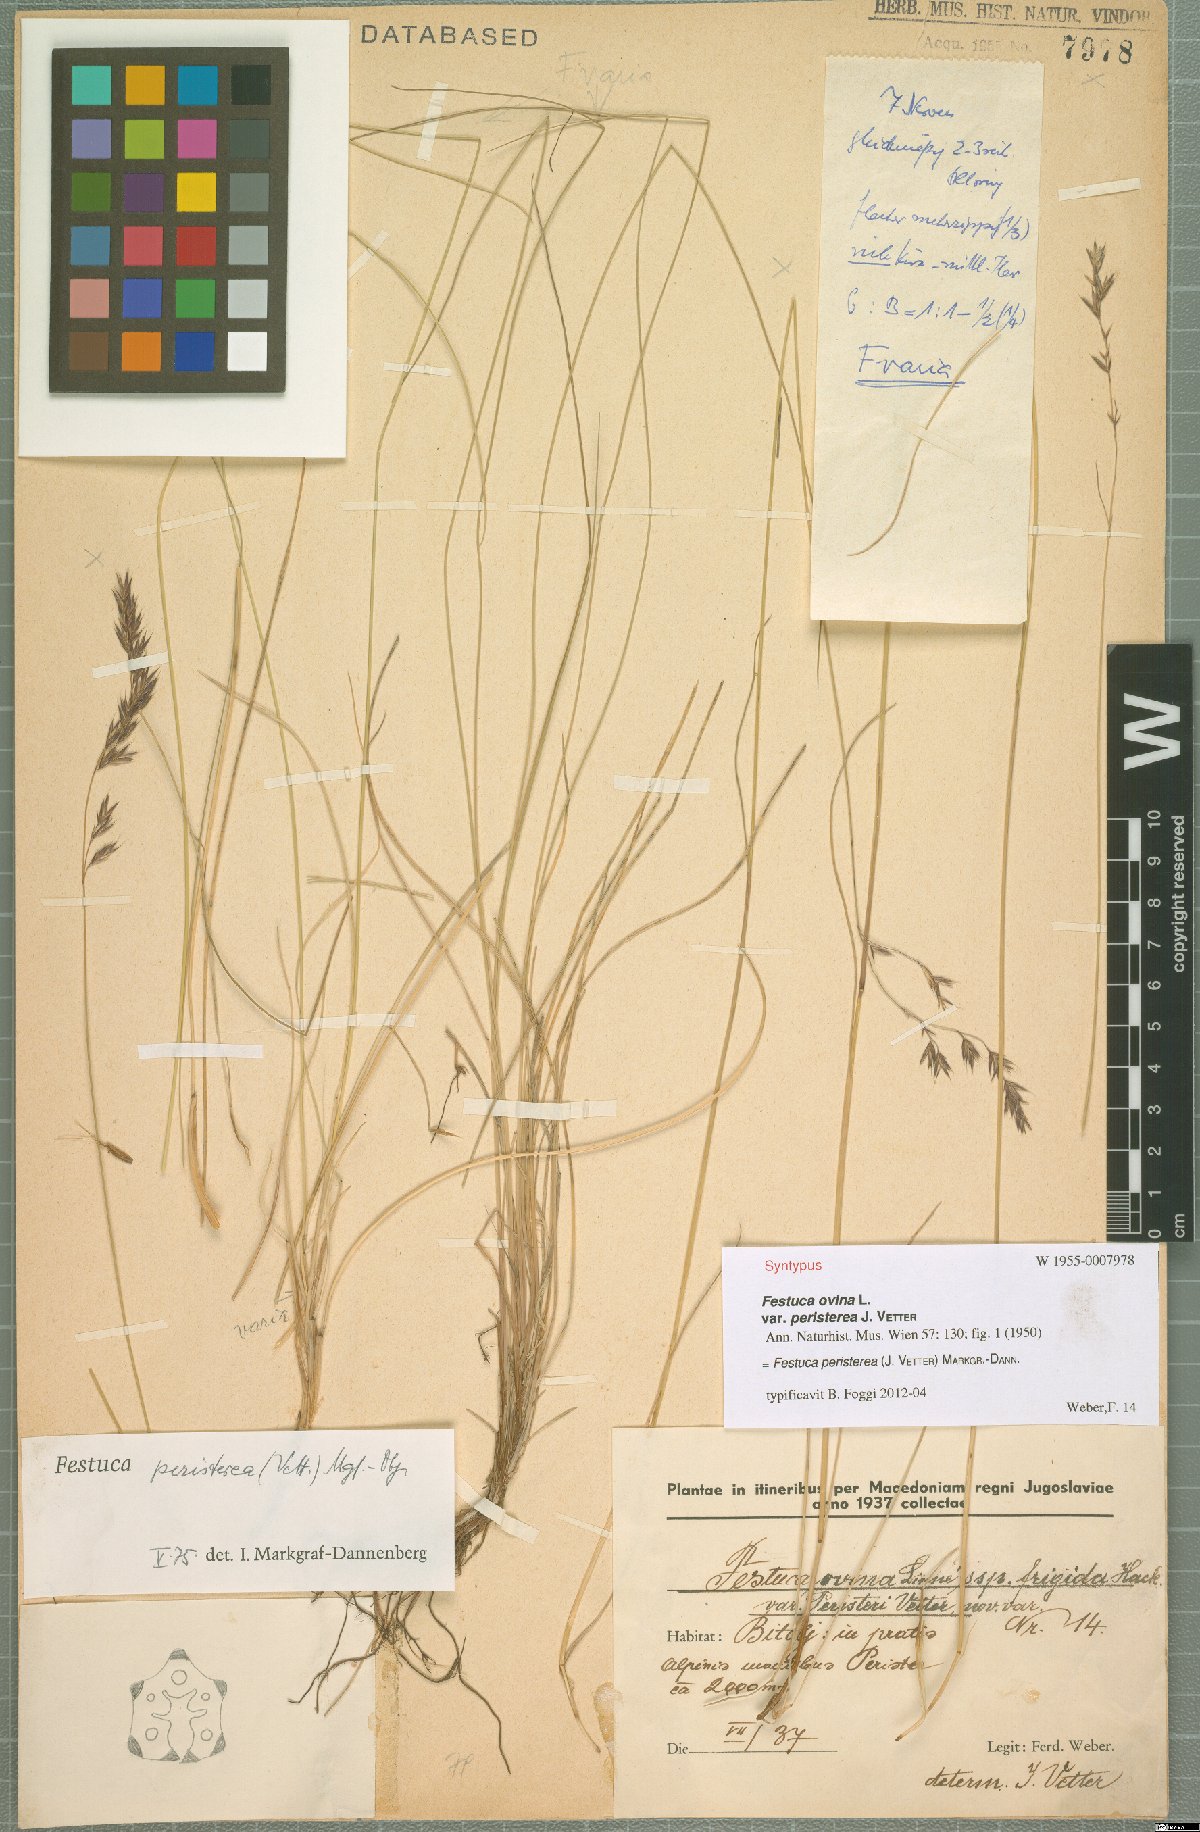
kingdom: Plantae
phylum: Tracheophyta
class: Liliopsida
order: Poales
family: Poaceae
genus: Festuca
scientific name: Festuca peristerea
